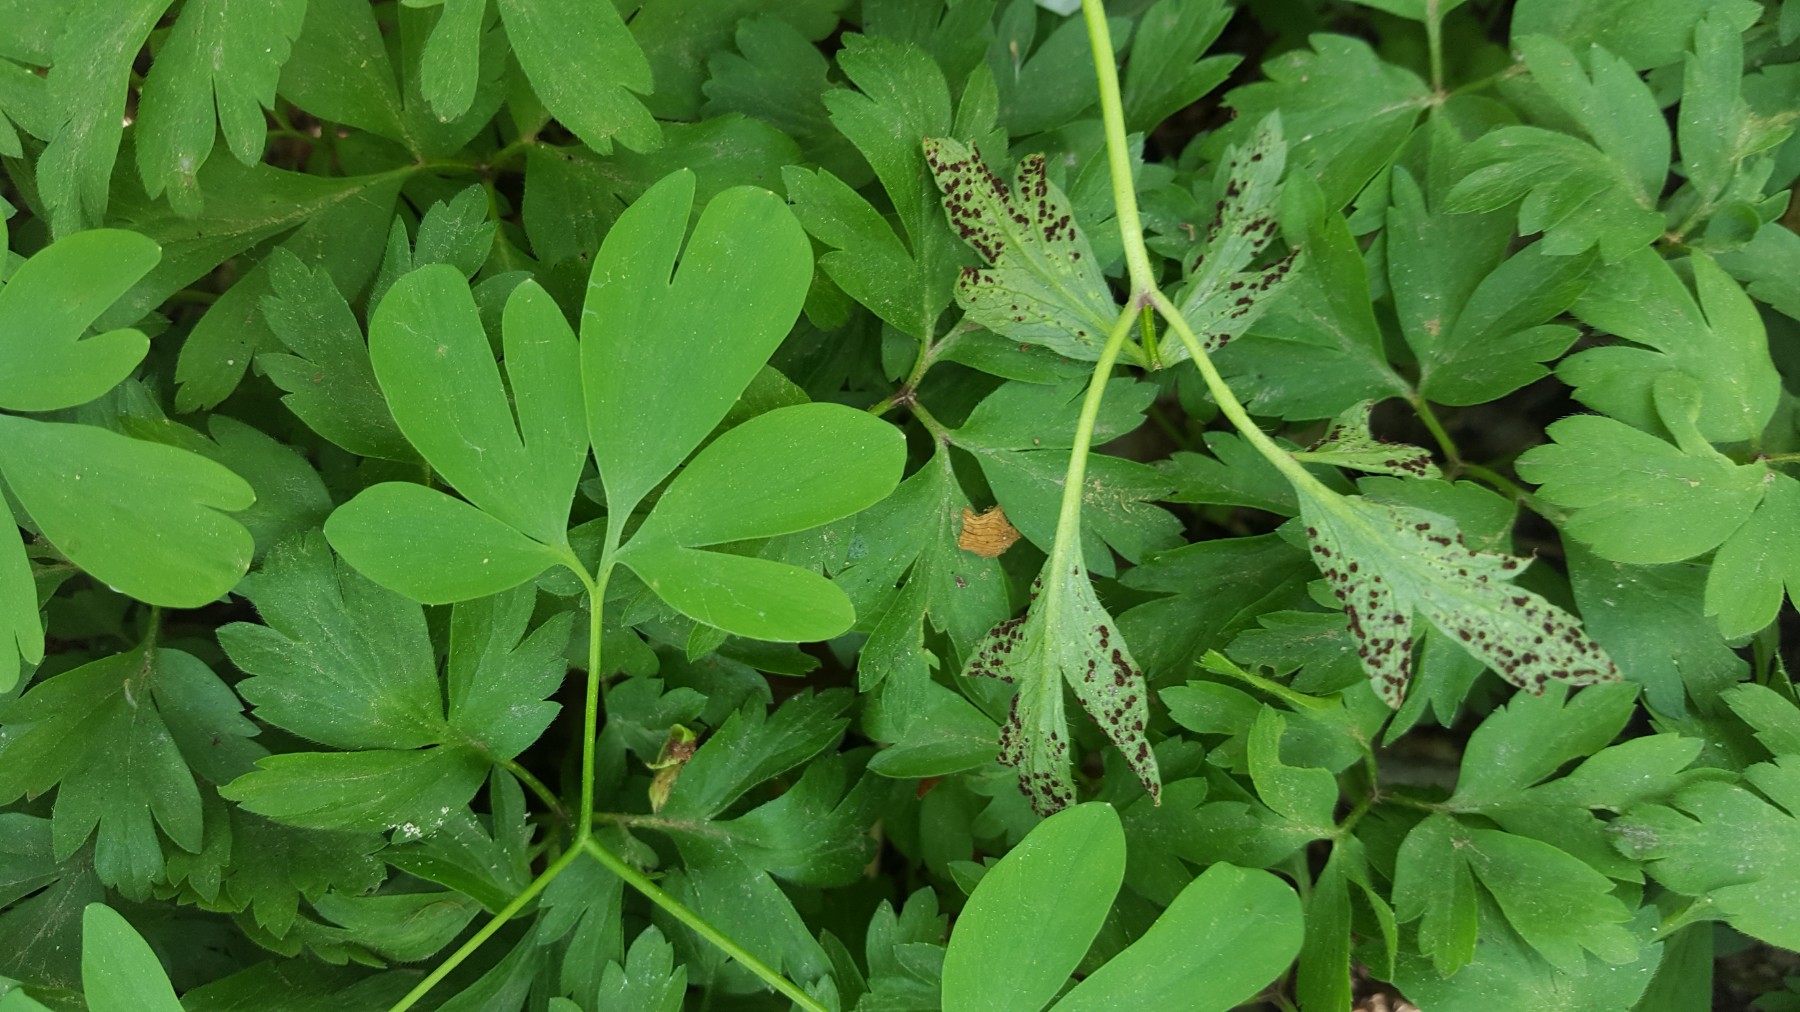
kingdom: Fungi
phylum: Basidiomycota
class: Pucciniomycetes
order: Pucciniales
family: Tranzscheliaceae
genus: Tranzschelia
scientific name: Tranzschelia anemones
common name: anemone-knæksporerust
